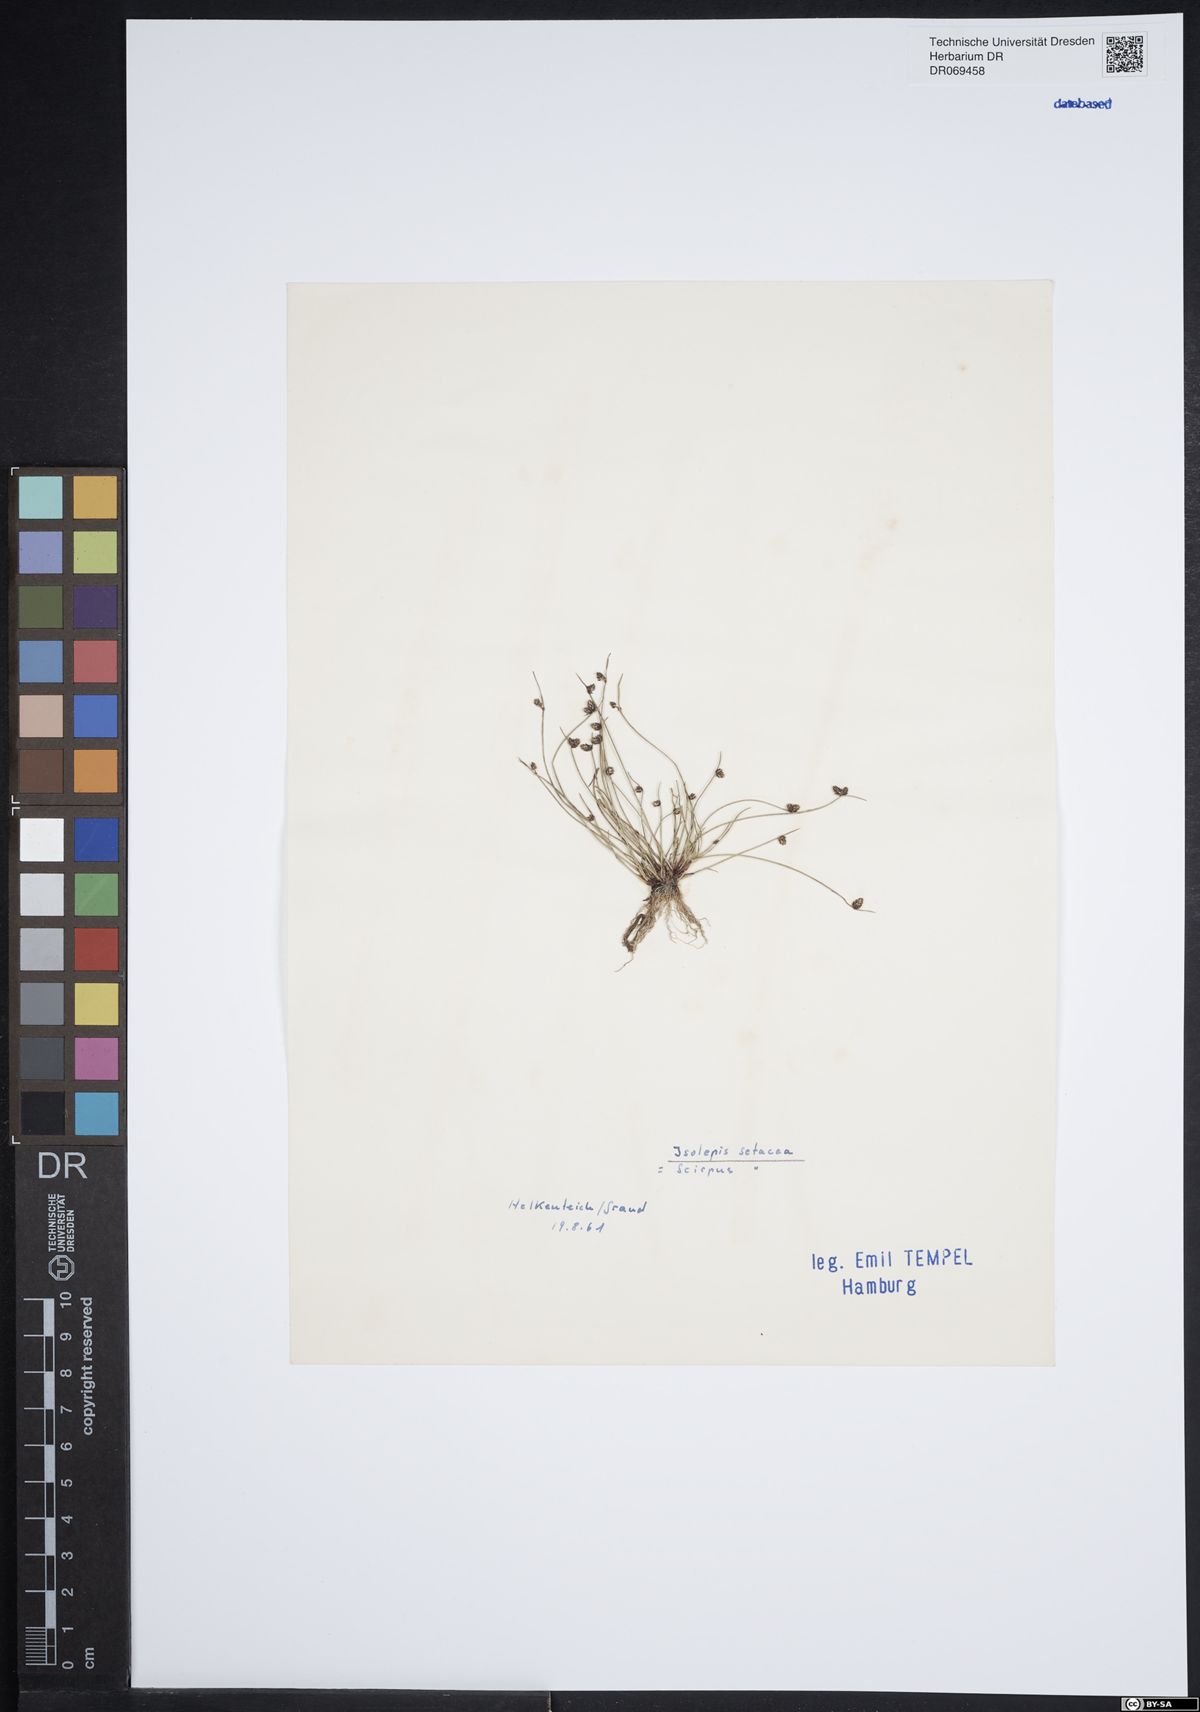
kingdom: Plantae
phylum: Tracheophyta
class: Liliopsida
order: Poales
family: Cyperaceae
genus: Isolepis
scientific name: Isolepis setacea
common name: Bristle club-rush
